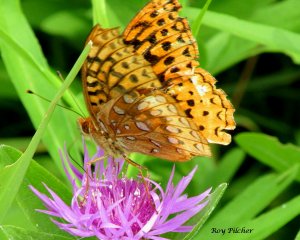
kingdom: Animalia
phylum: Arthropoda
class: Insecta
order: Lepidoptera
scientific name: Lepidoptera
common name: Butterflies
